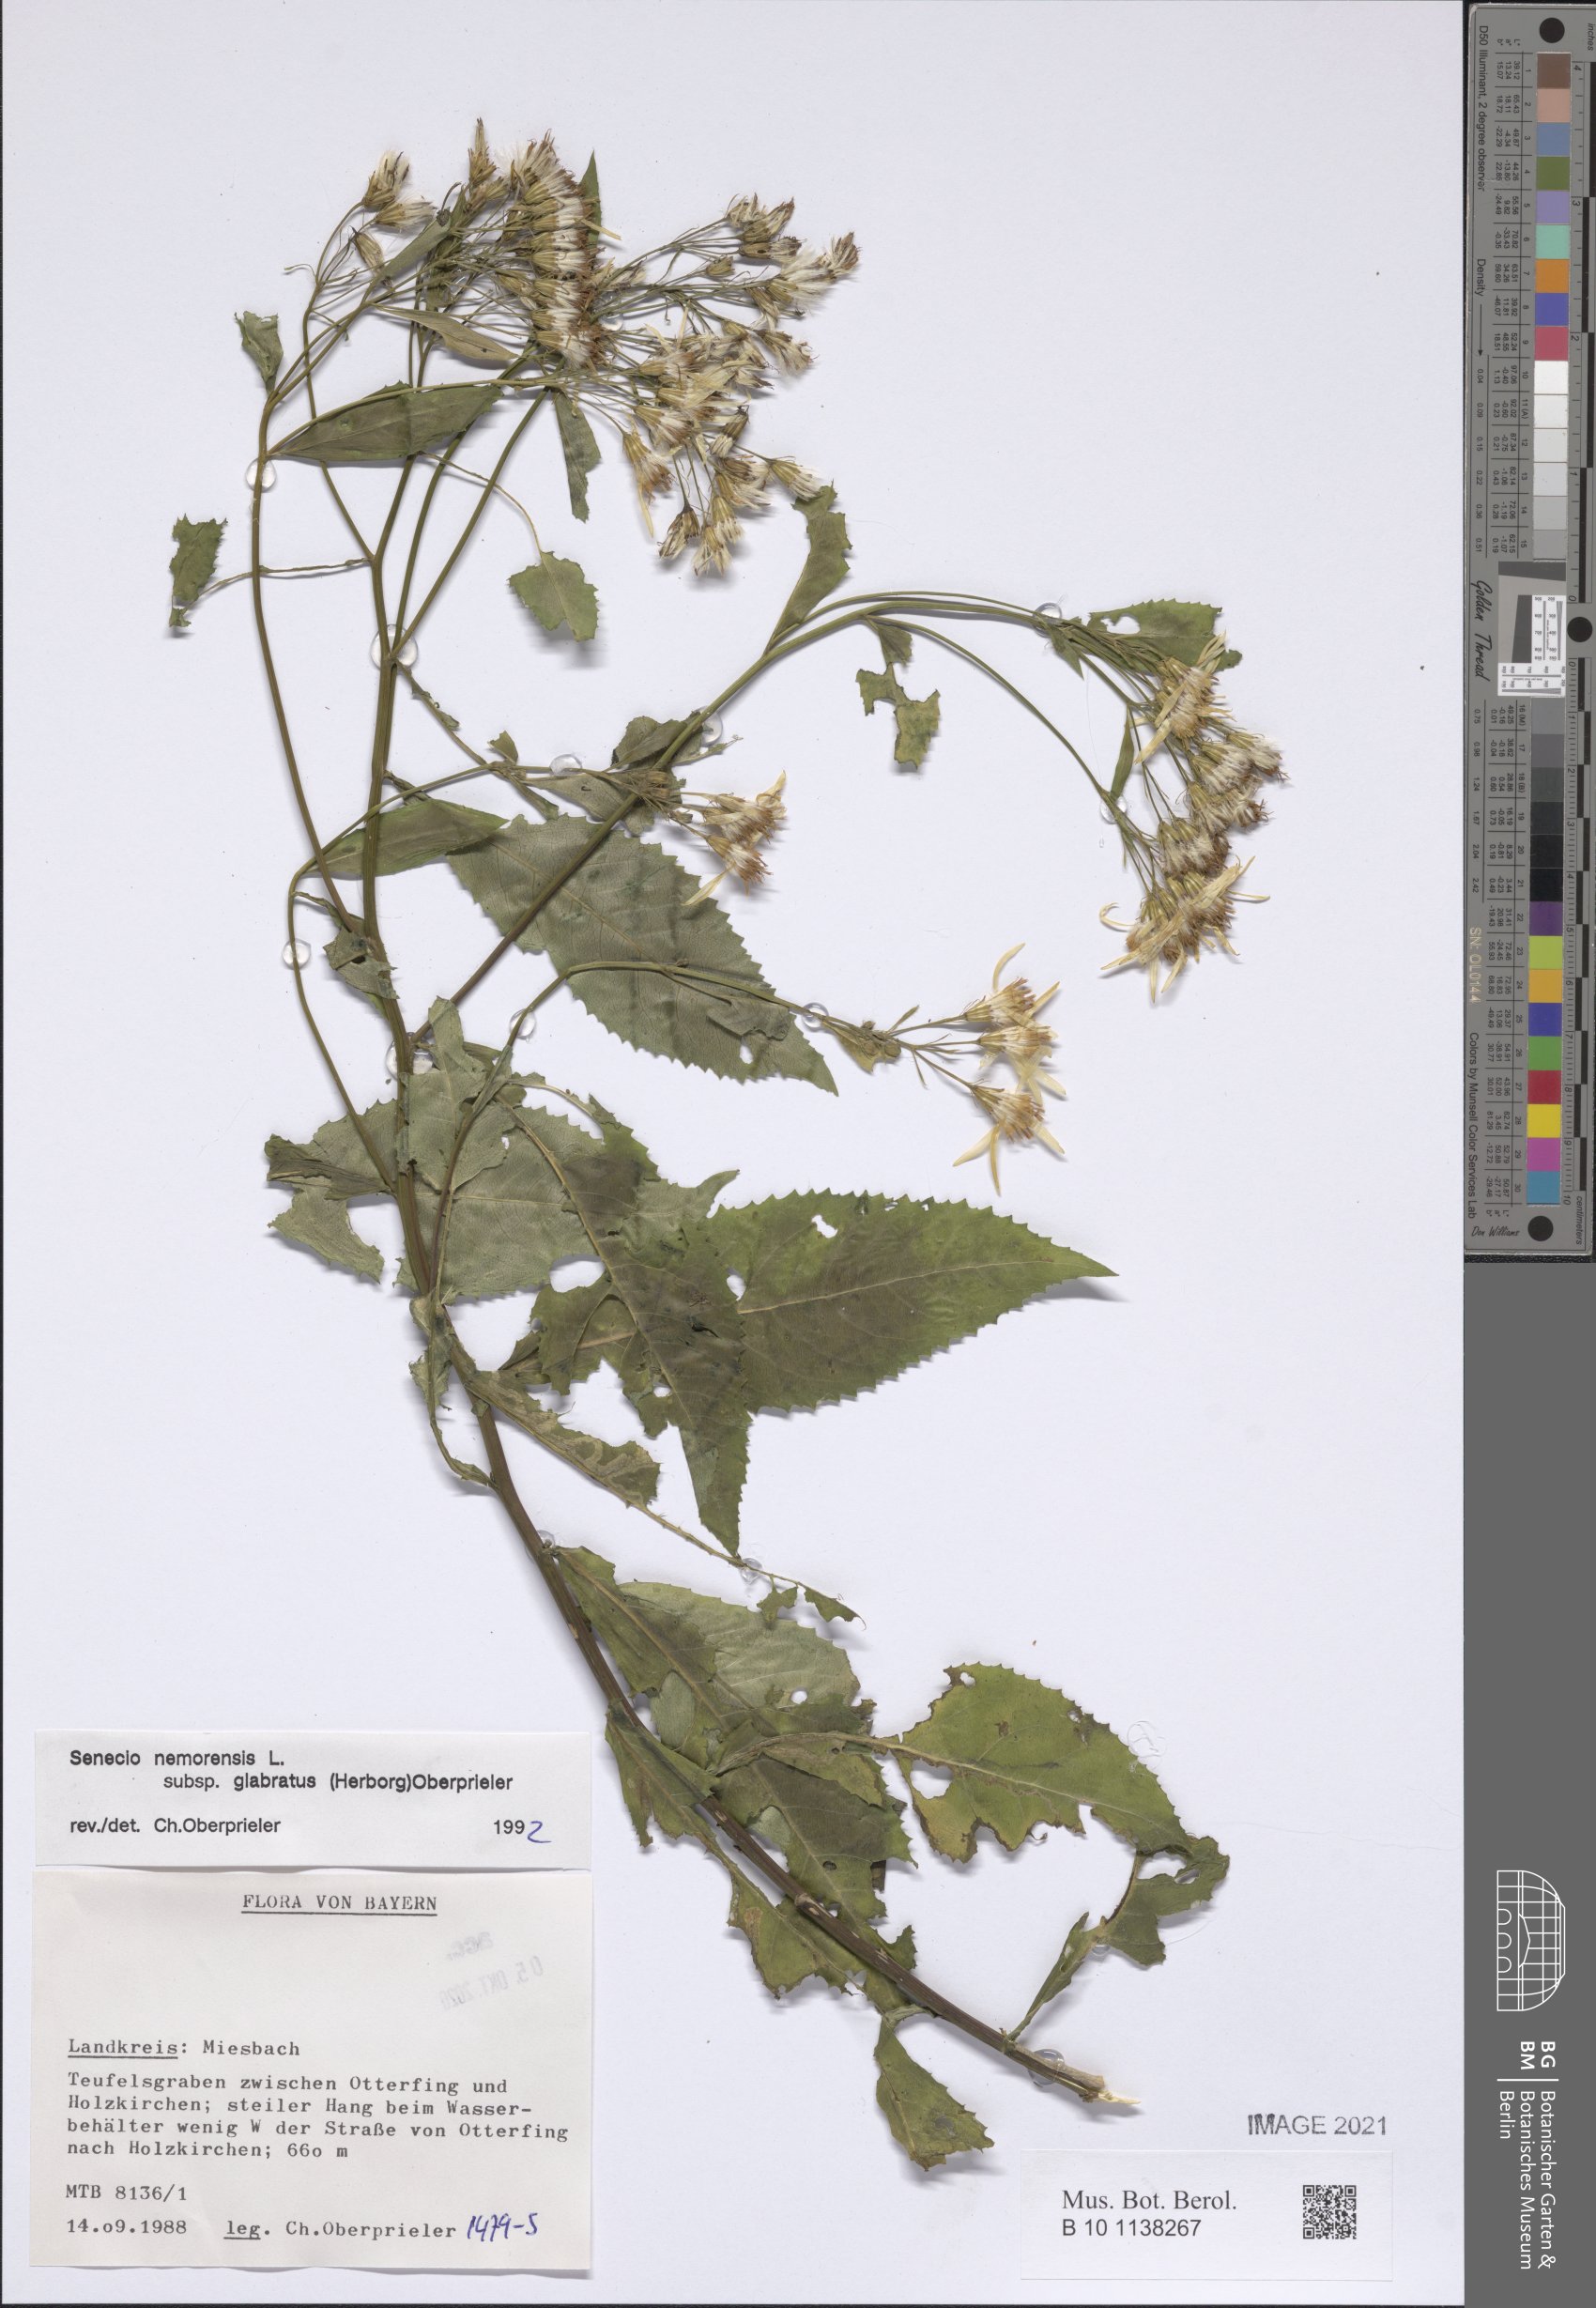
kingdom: Plantae
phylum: Tracheophyta
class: Magnoliopsida
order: Asterales
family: Asteraceae
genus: Senecio
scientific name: Senecio germanicus
